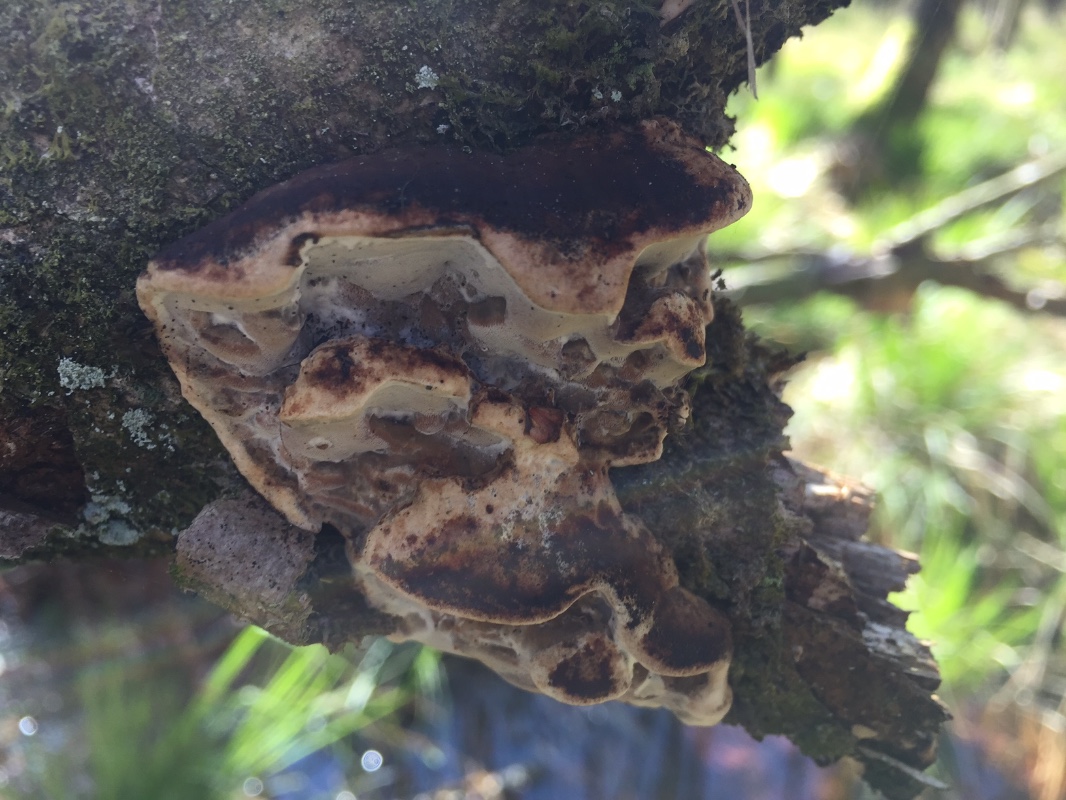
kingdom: Fungi
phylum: Basidiomycota
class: Agaricomycetes
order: Polyporales
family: Incrustoporiaceae
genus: Skeletocutis
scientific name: Skeletocutis nemoralis
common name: stor krystalporesvamp
